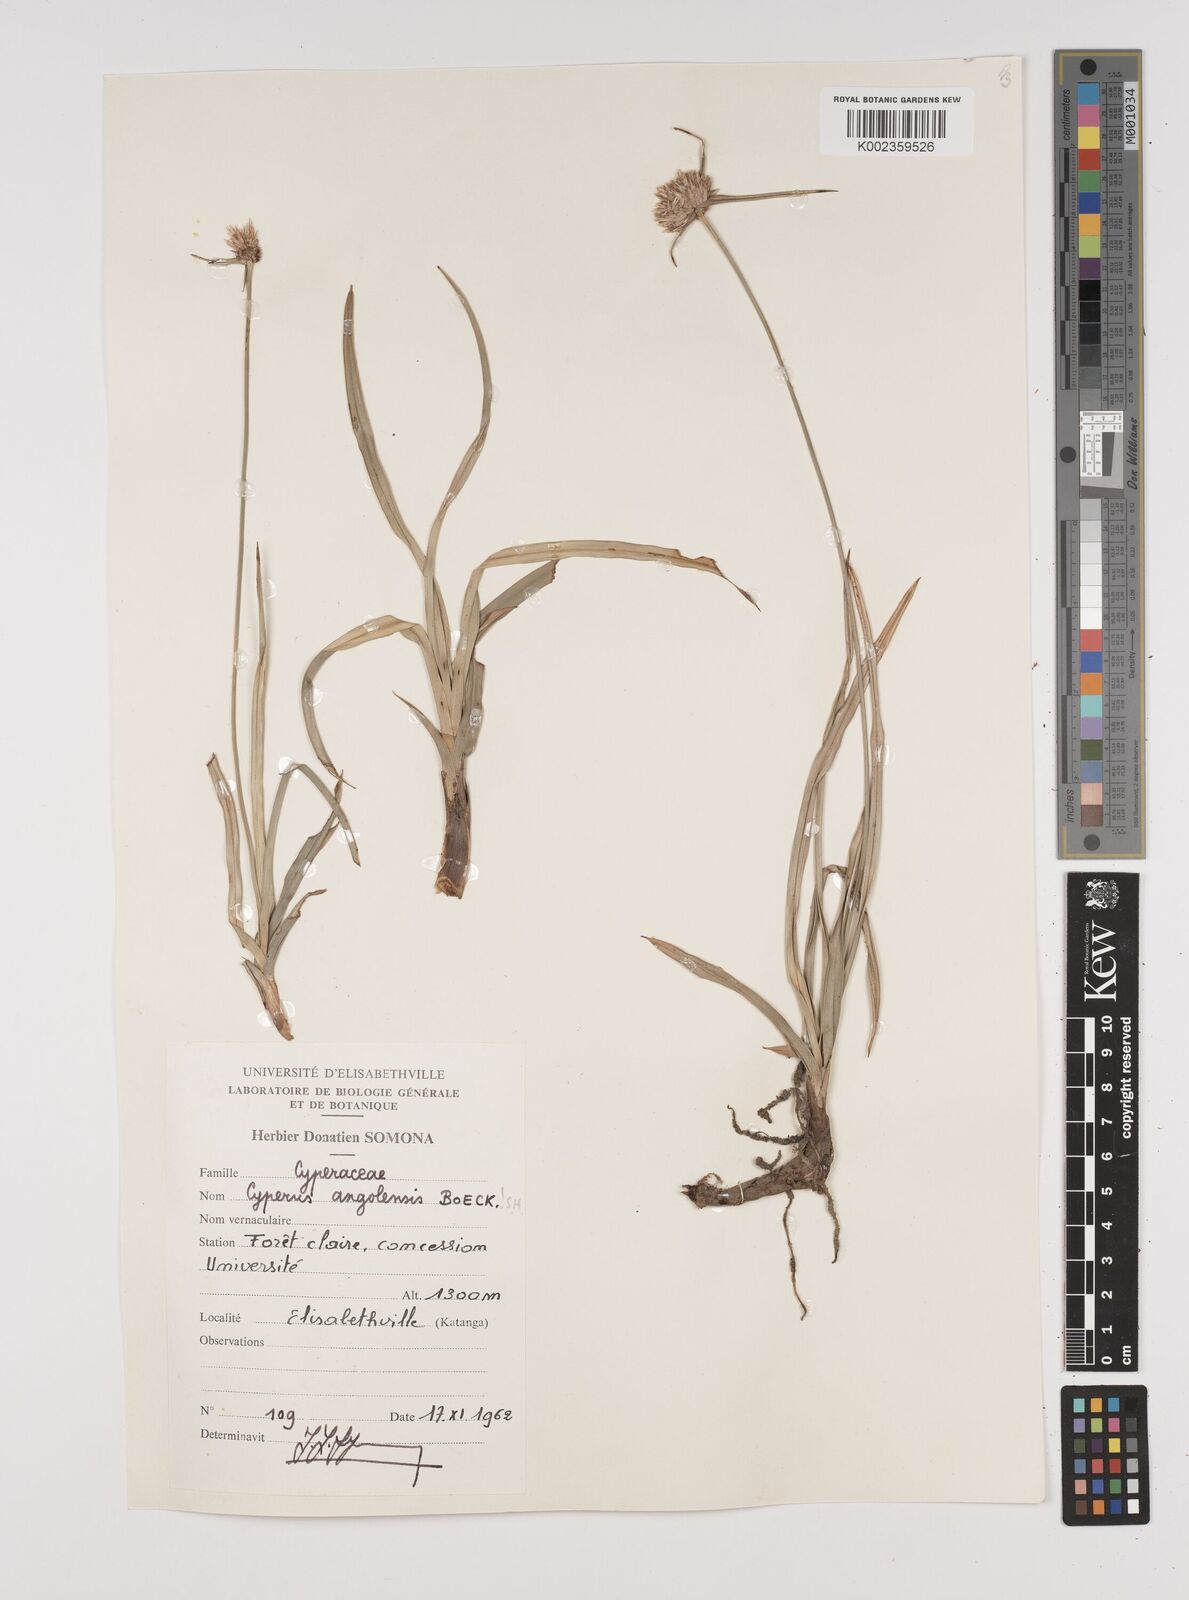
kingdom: Plantae
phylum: Tracheophyta
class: Liliopsida
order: Poales
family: Cyperaceae
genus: Cyperus
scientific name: Cyperus angolensis
